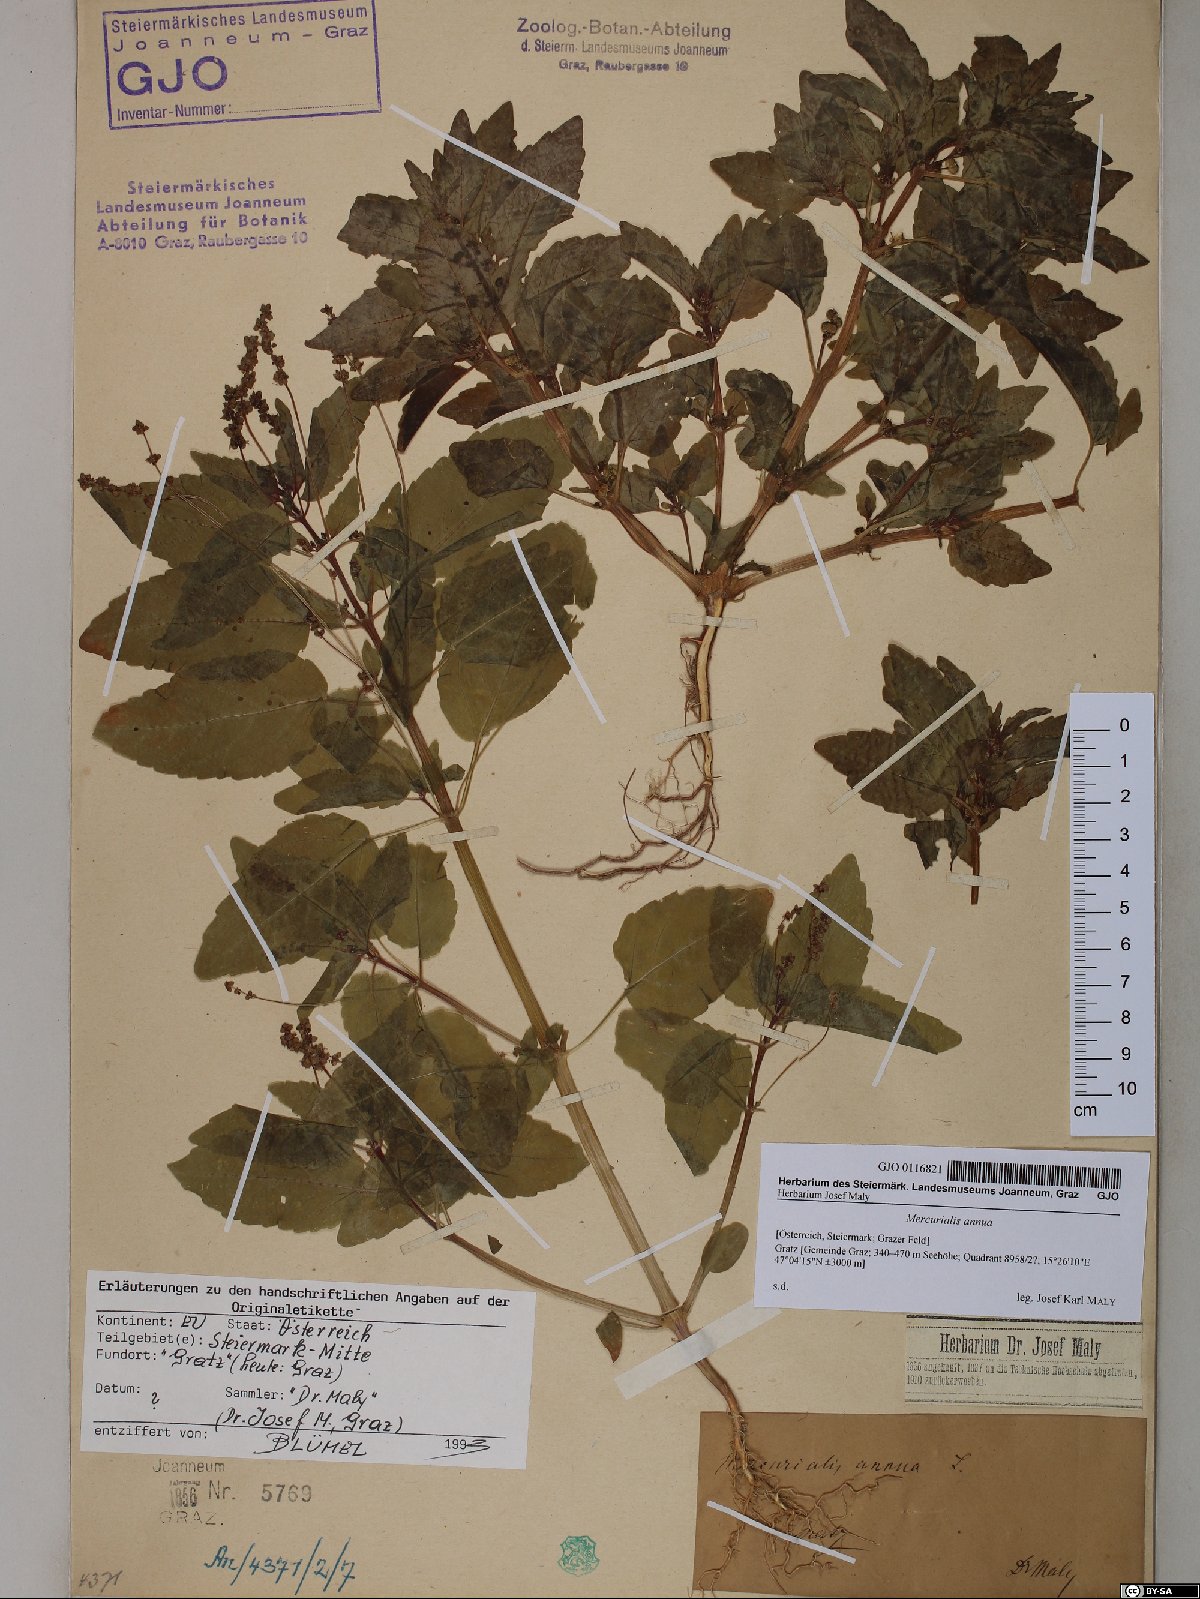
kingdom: Plantae
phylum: Tracheophyta
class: Magnoliopsida
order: Malpighiales
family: Euphorbiaceae
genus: Mercurialis
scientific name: Mercurialis annua
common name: Annual mercury
